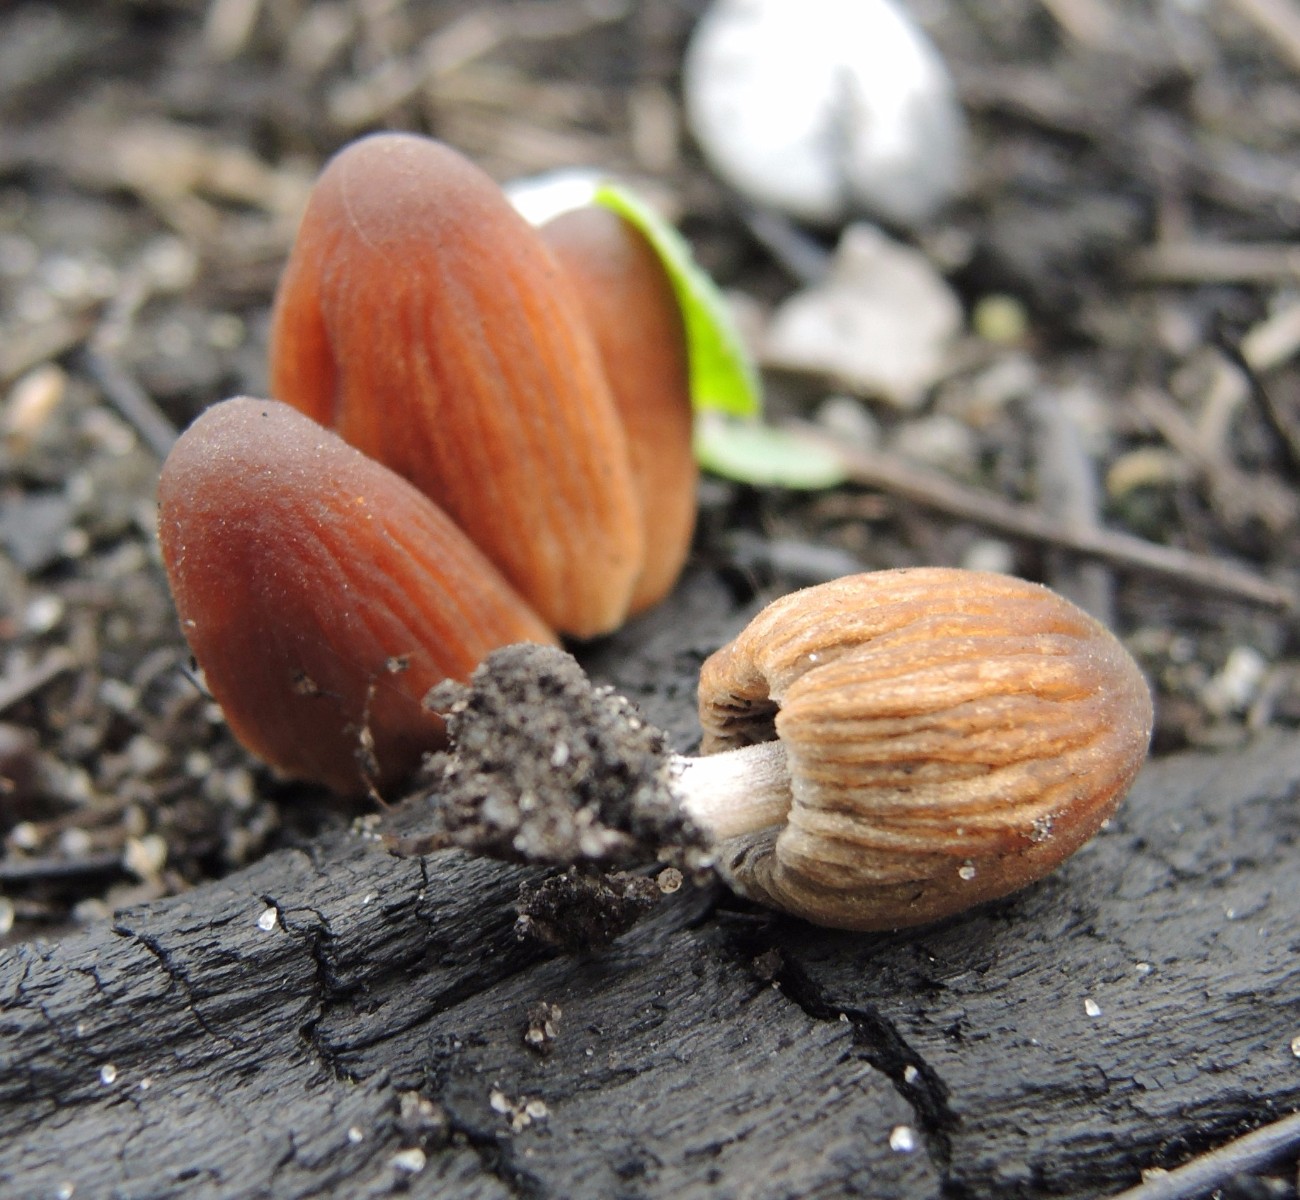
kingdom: Fungi
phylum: Basidiomycota
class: Agaricomycetes
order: Agaricales
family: Psathyrellaceae
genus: Tulosesus
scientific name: Tulosesus angulatus
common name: kul-blækhat
